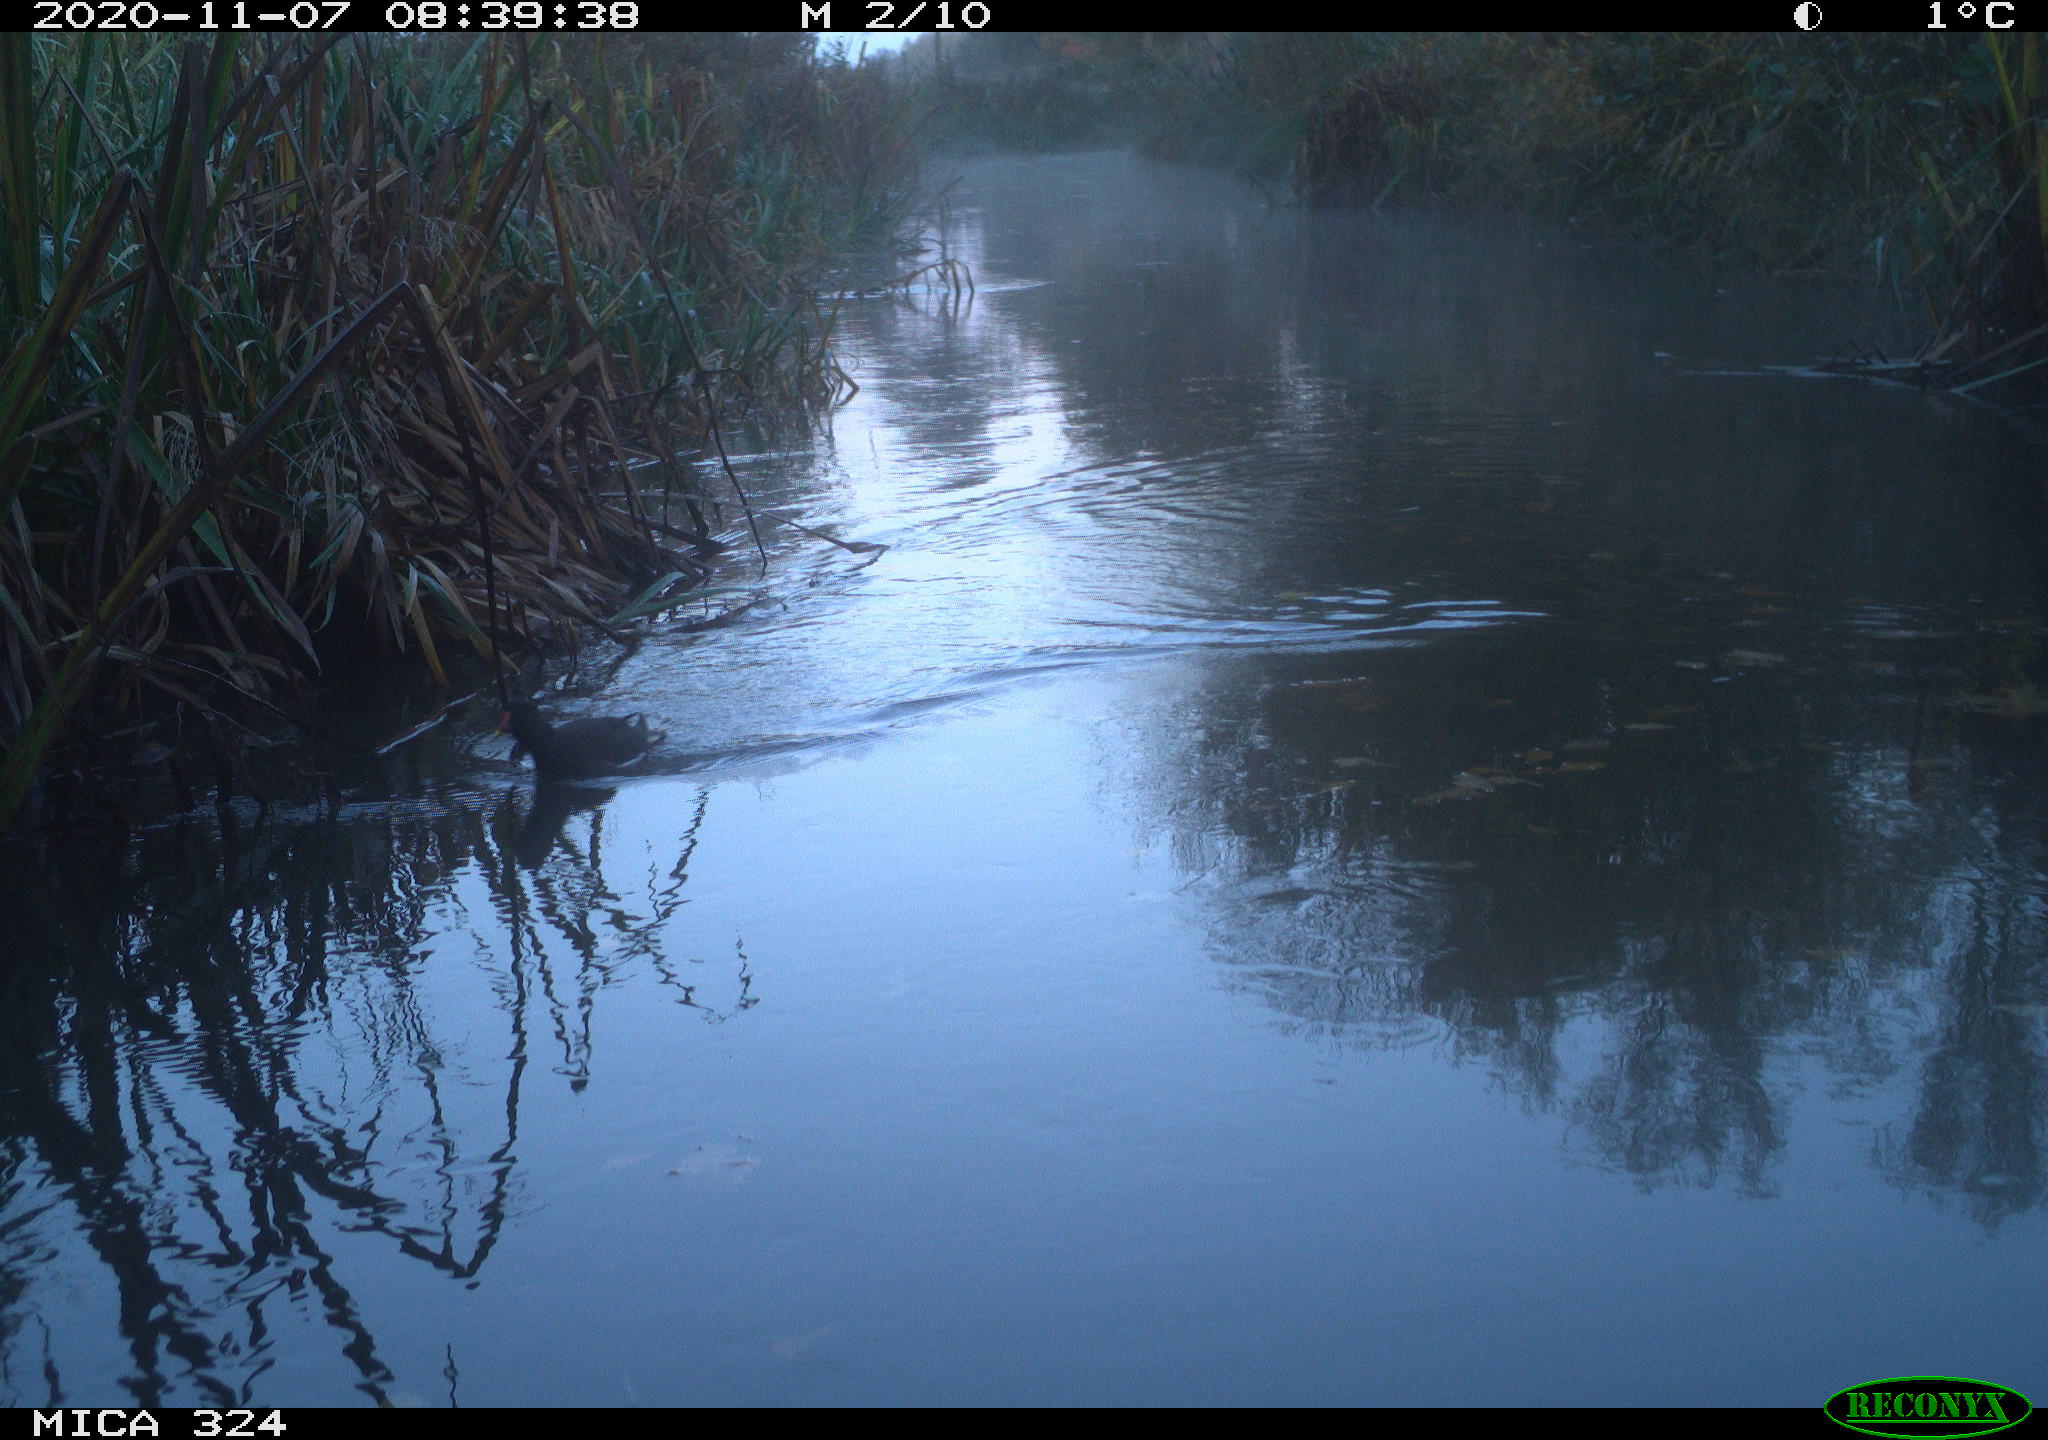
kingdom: Animalia
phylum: Chordata
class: Aves
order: Gruiformes
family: Rallidae
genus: Gallinula
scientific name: Gallinula chloropus
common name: Common moorhen
